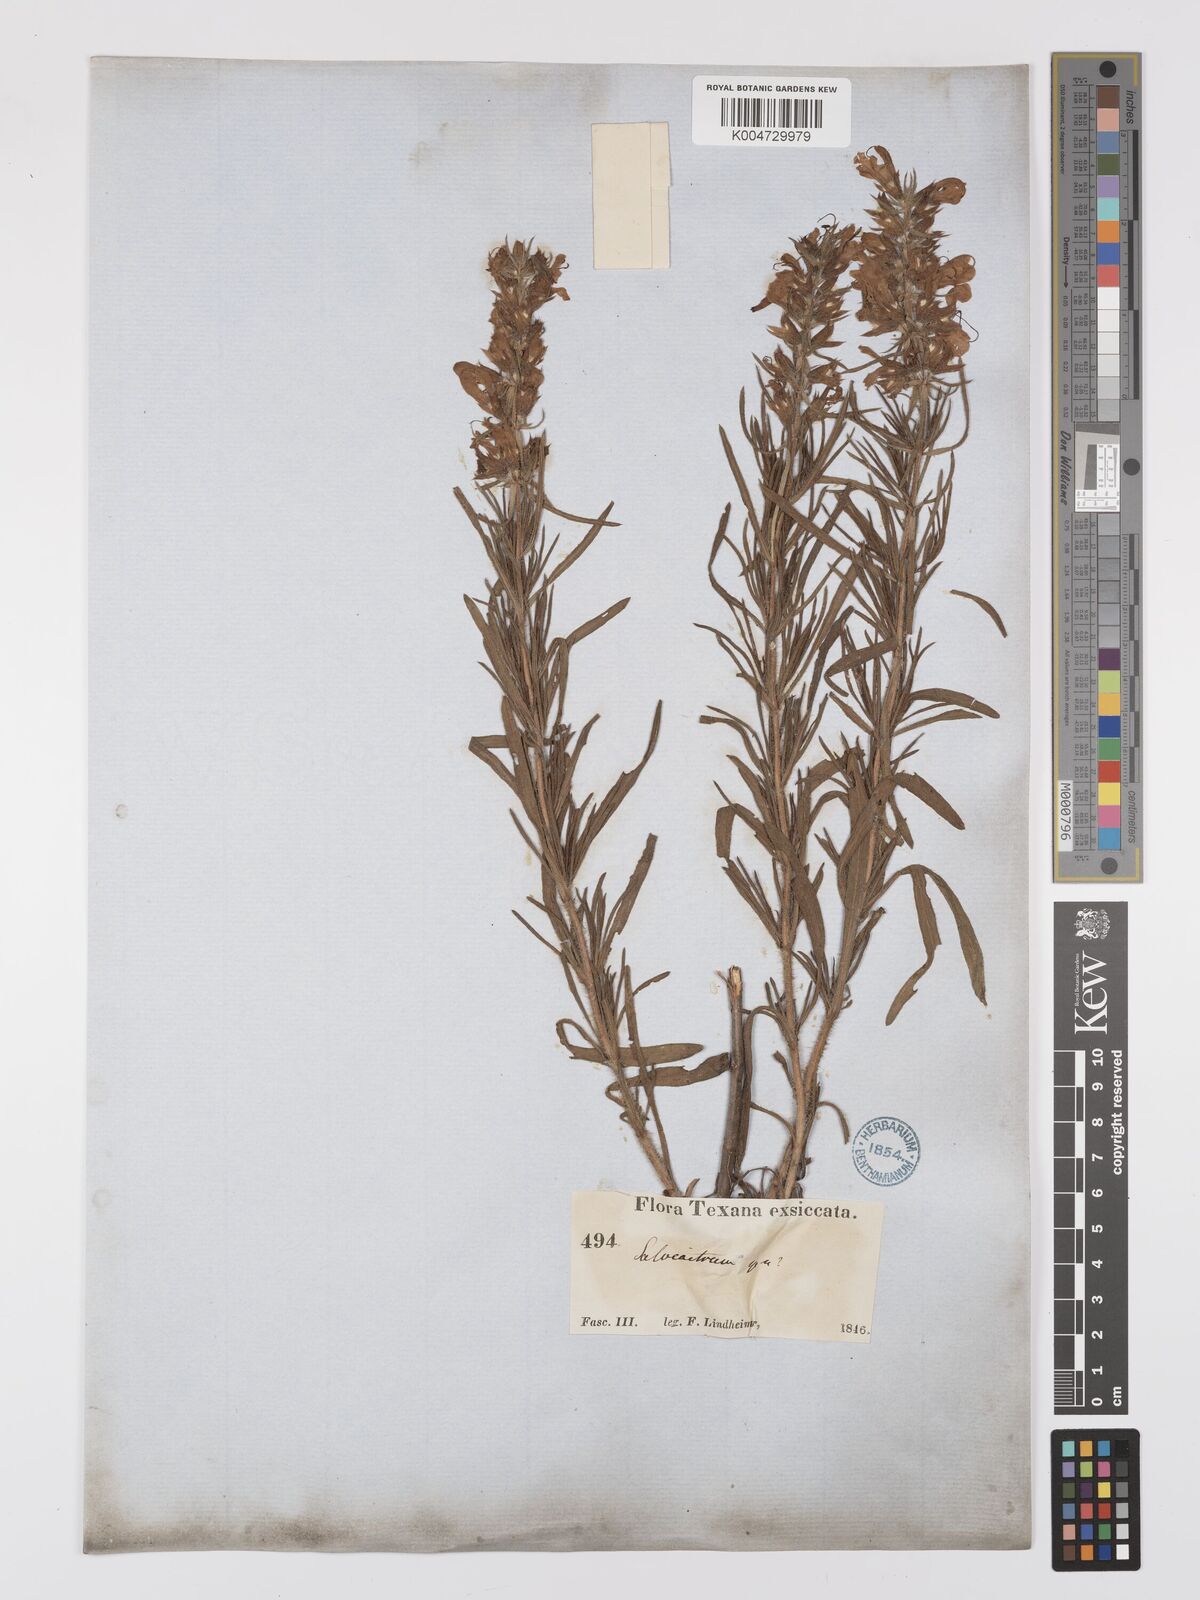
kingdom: Plantae
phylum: Tracheophyta
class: Magnoliopsida
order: Lamiales
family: Lamiaceae
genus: Salvia
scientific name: Salvia
